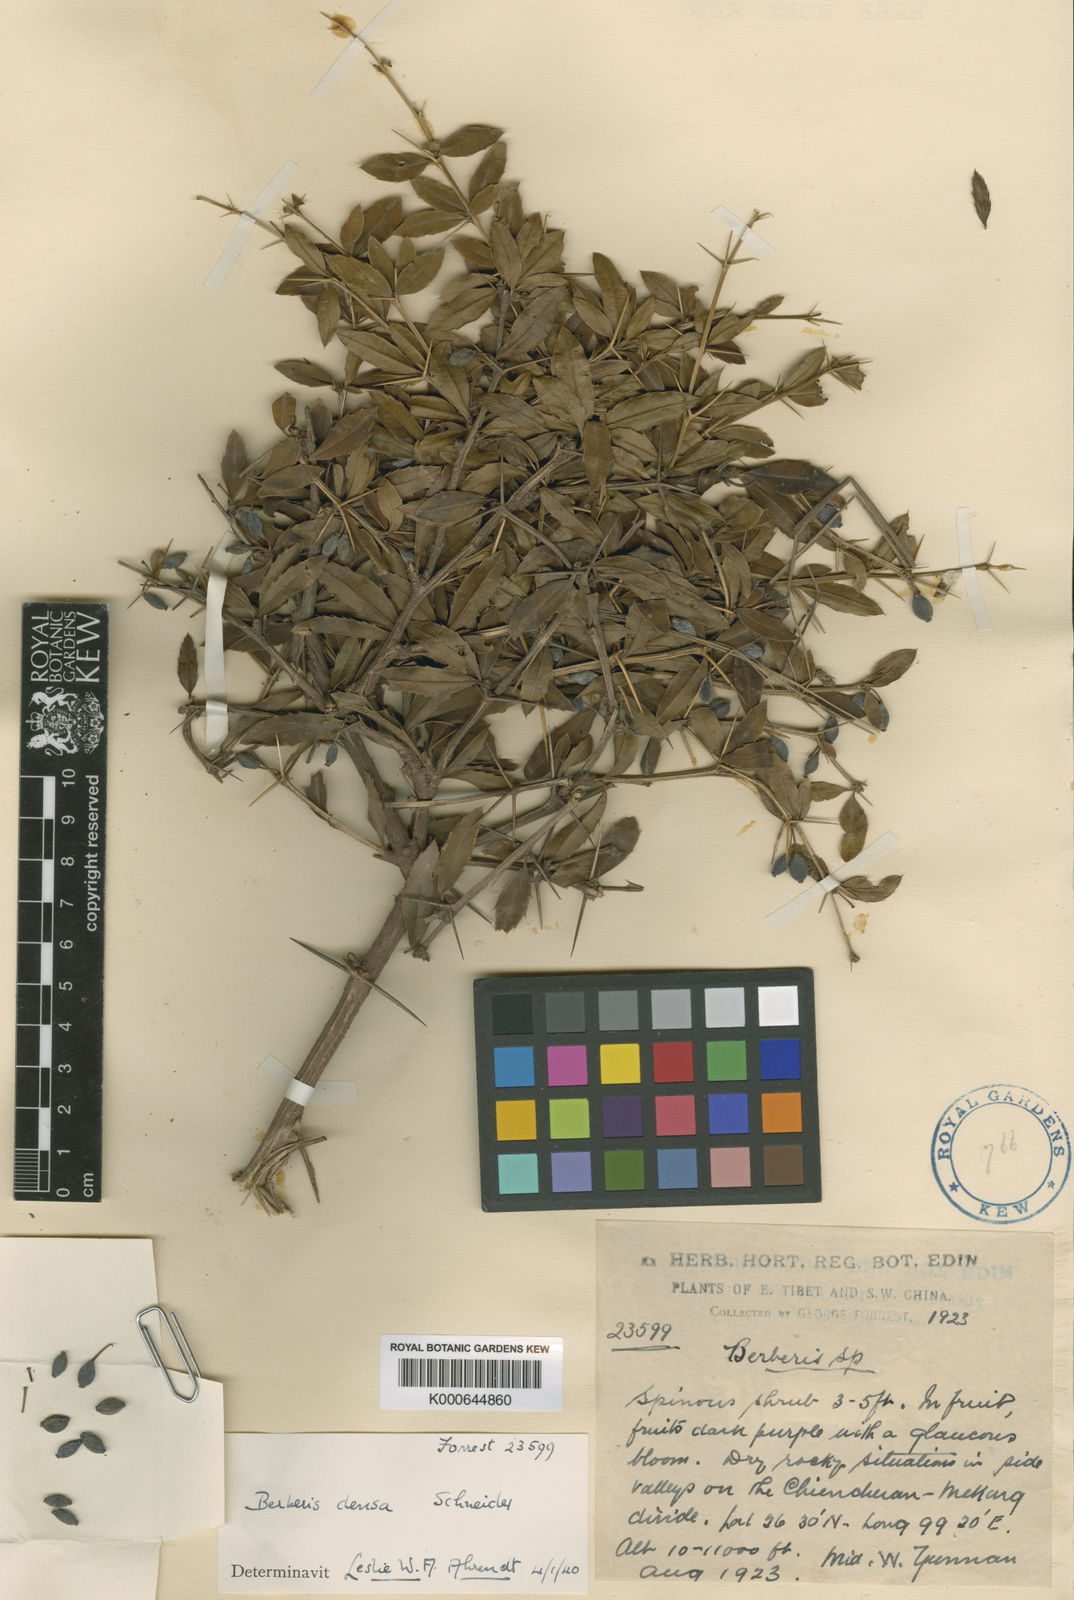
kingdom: Plantae
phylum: Tracheophyta
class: Magnoliopsida
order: Ranunculales
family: Berberidaceae
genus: Berberis
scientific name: Berberis davidii
